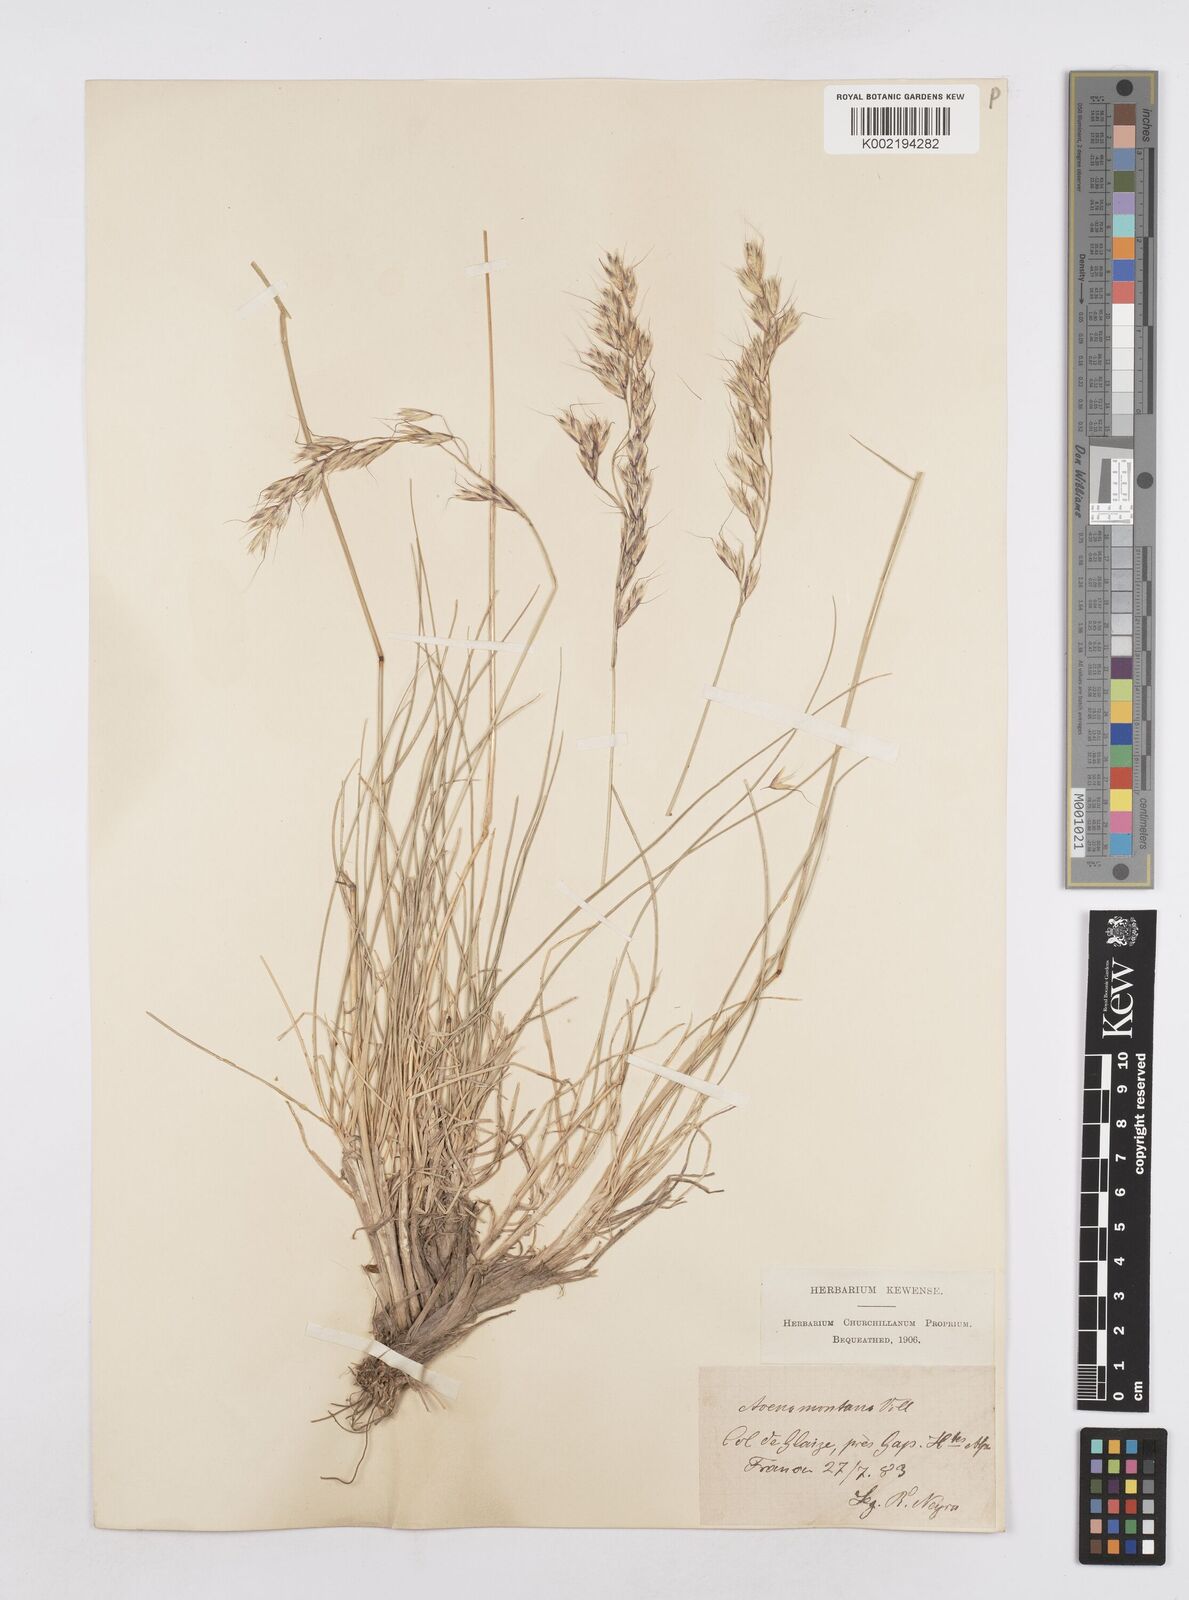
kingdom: Plantae
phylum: Tracheophyta
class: Liliopsida
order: Poales
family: Poaceae
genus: Helictotrichon
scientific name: Helictotrichon sedenense
